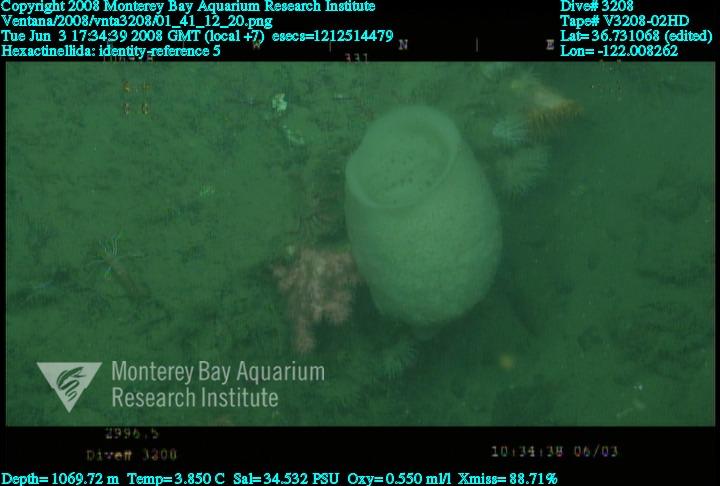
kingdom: Animalia
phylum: Porifera
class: Hexactinellida
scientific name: Hexactinellida
